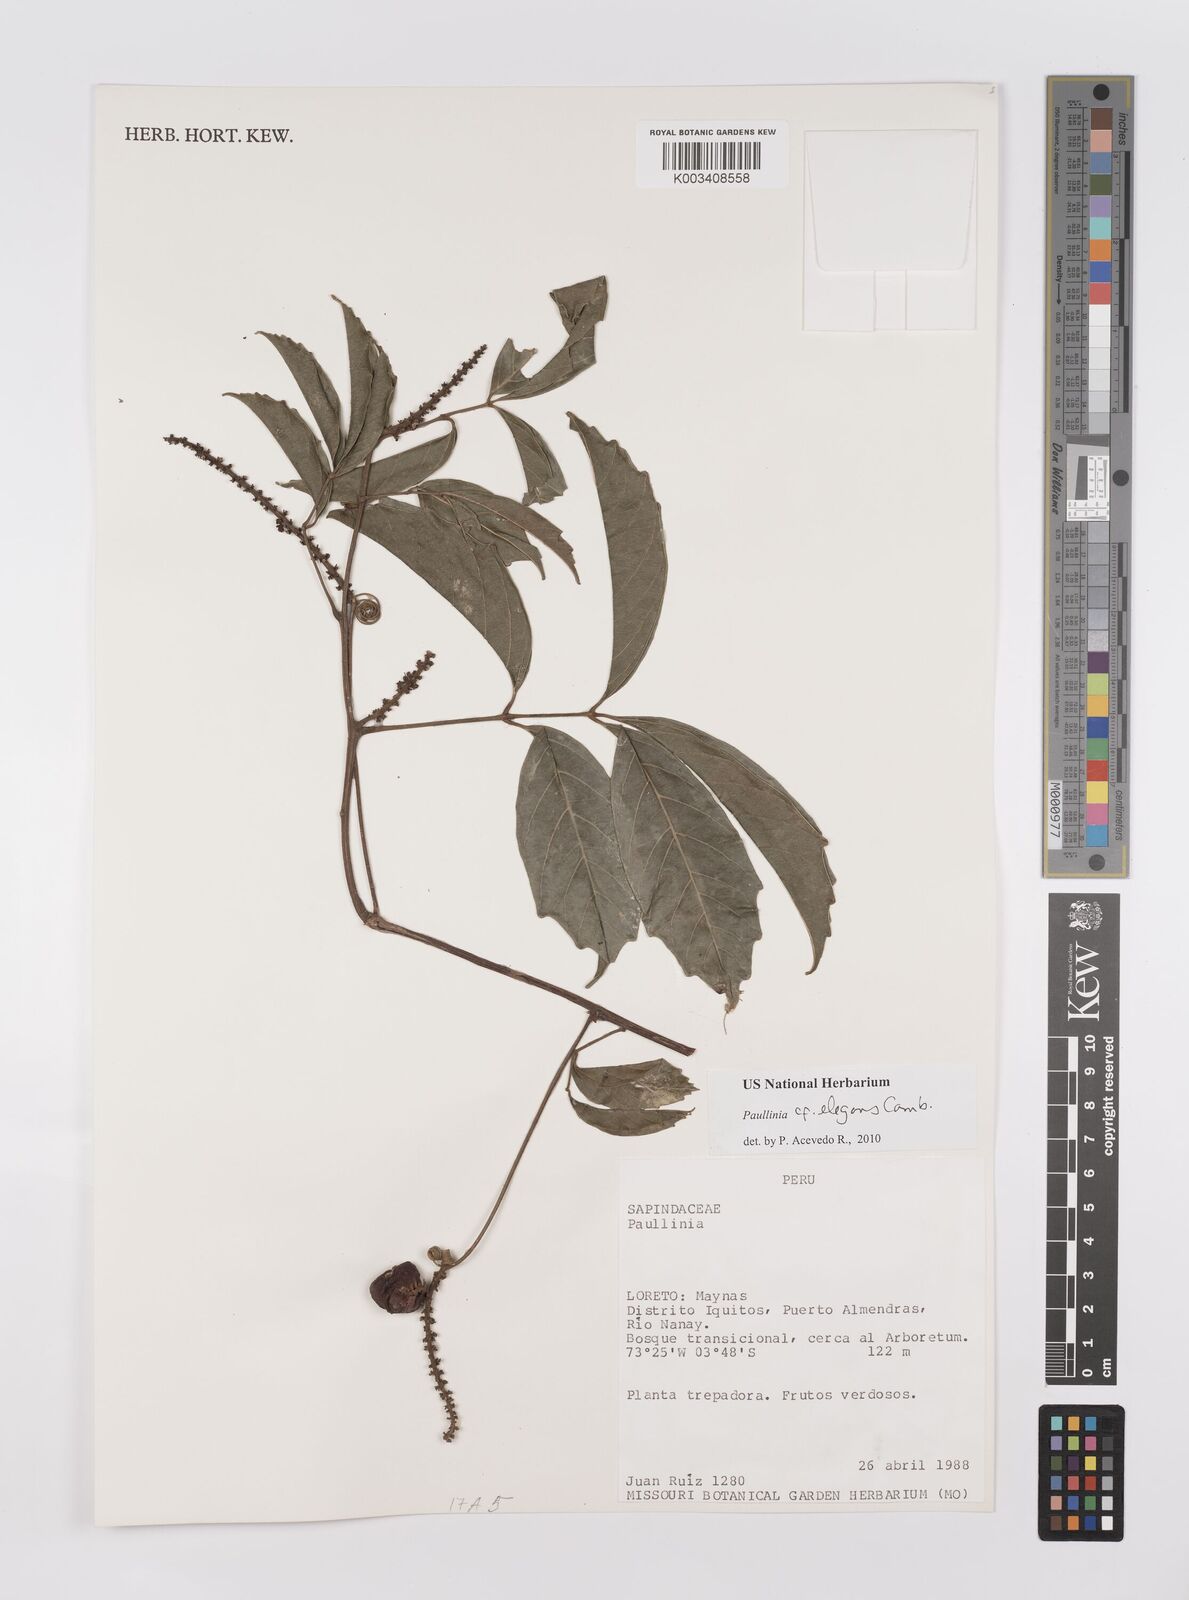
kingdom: Plantae
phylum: Tracheophyta
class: Magnoliopsida
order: Sapindales
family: Sapindaceae
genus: Paullinia
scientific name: Paullinia elegans
